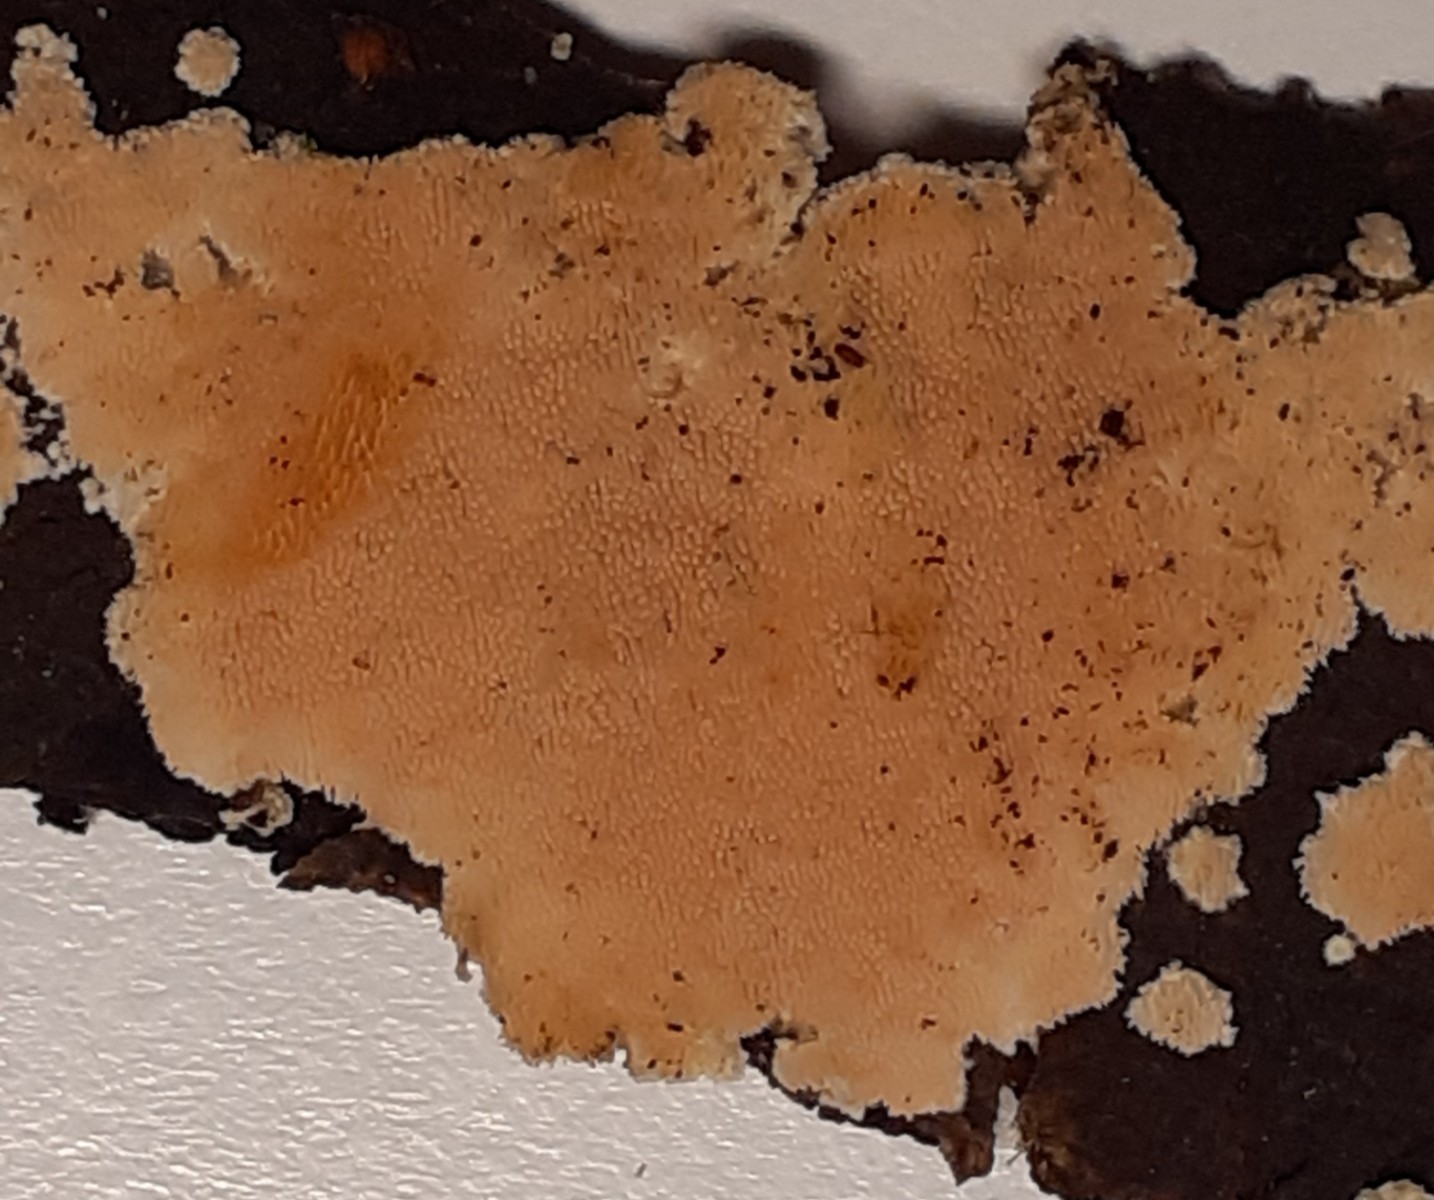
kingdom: Fungi
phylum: Basidiomycota
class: Agaricomycetes
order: Polyporales
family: Steccherinaceae
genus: Steccherinum
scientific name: Steccherinum ochraceum
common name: almindelig skønpig
